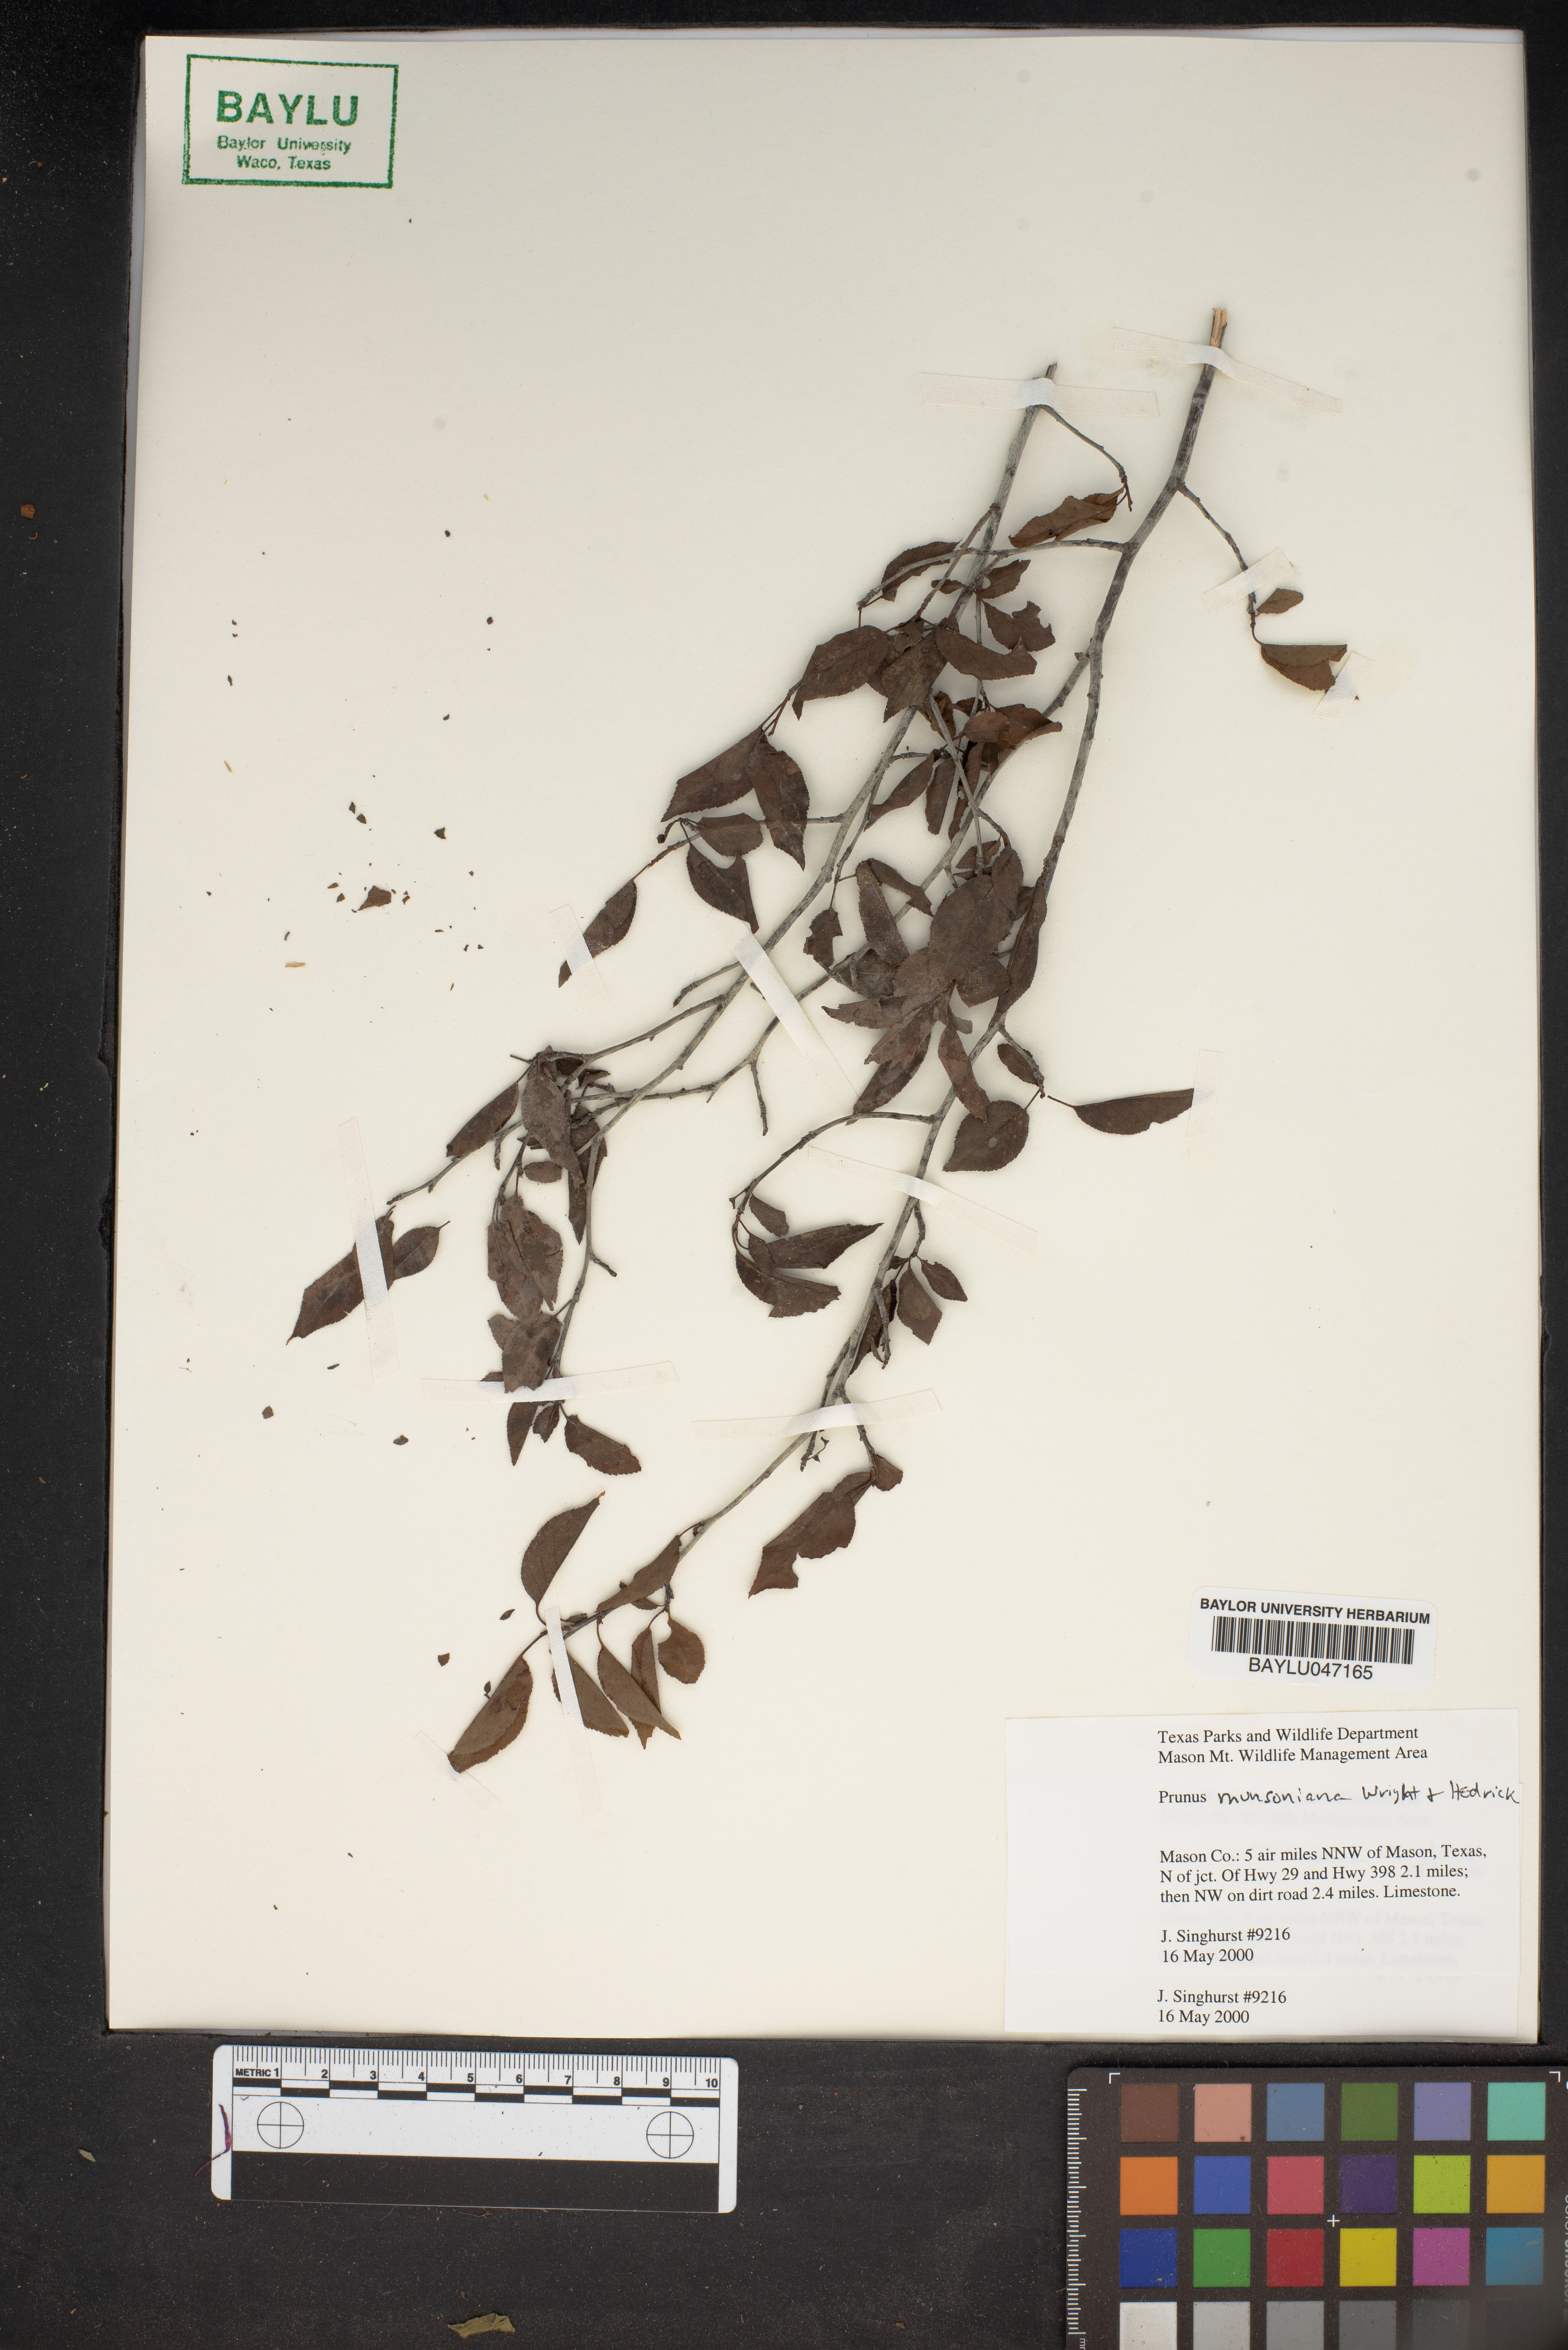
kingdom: Plantae
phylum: Tracheophyta
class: Magnoliopsida
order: Rosales
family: Rosaceae
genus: Prunus
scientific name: Prunus munsoniana
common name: Creek plum
